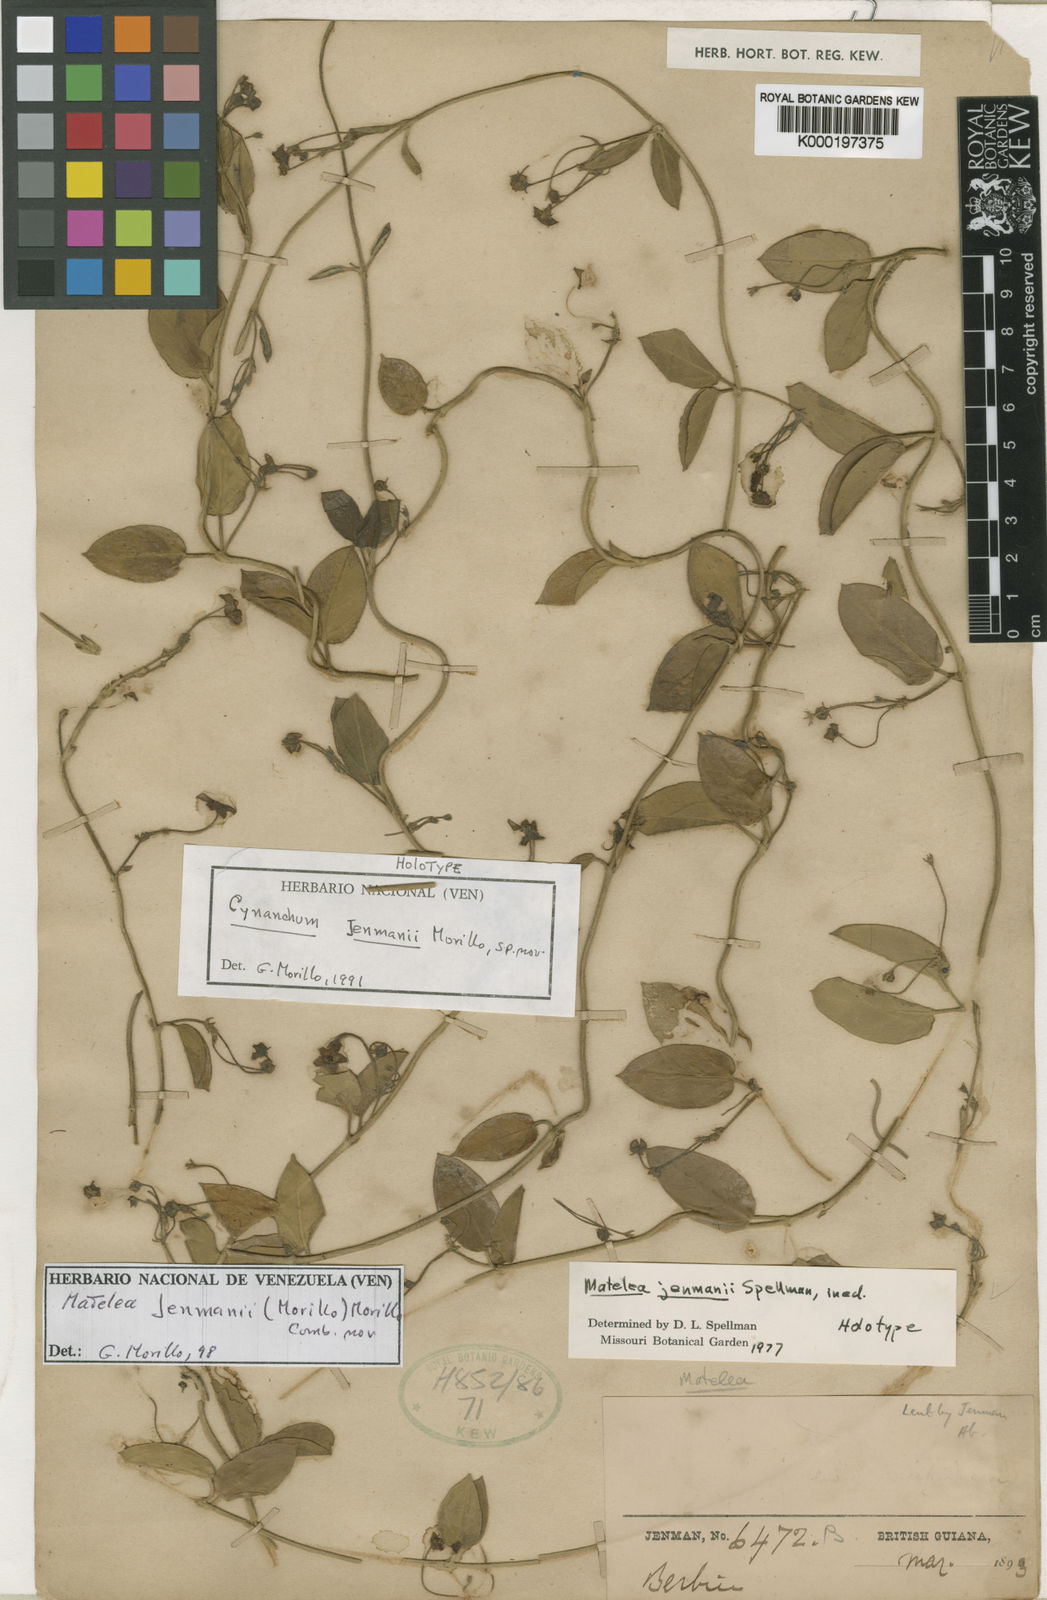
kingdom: Plantae
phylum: Tracheophyta
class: Magnoliopsida
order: Gentianales
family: Apocynaceae
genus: Matelea
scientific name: Matelea jenmanii
